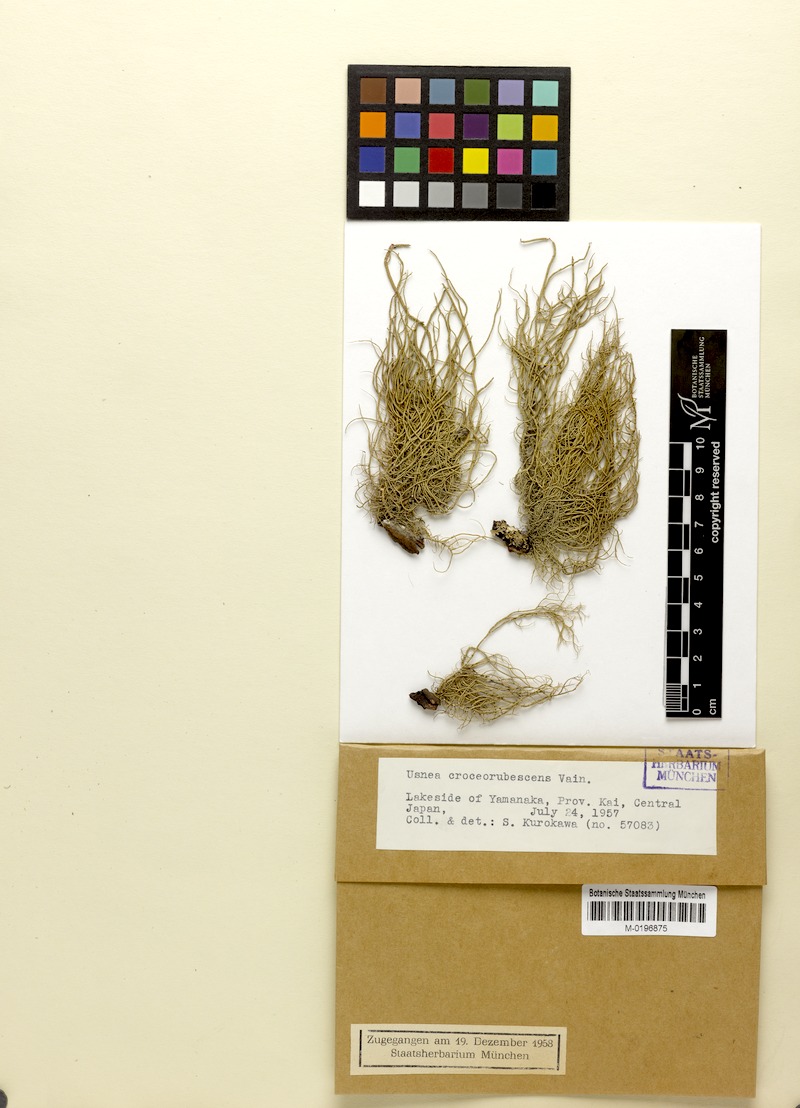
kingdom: Fungi
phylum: Ascomycota
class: Lecanoromycetes
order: Lecanorales
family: Parmeliaceae
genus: Usnea
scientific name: Usnea
